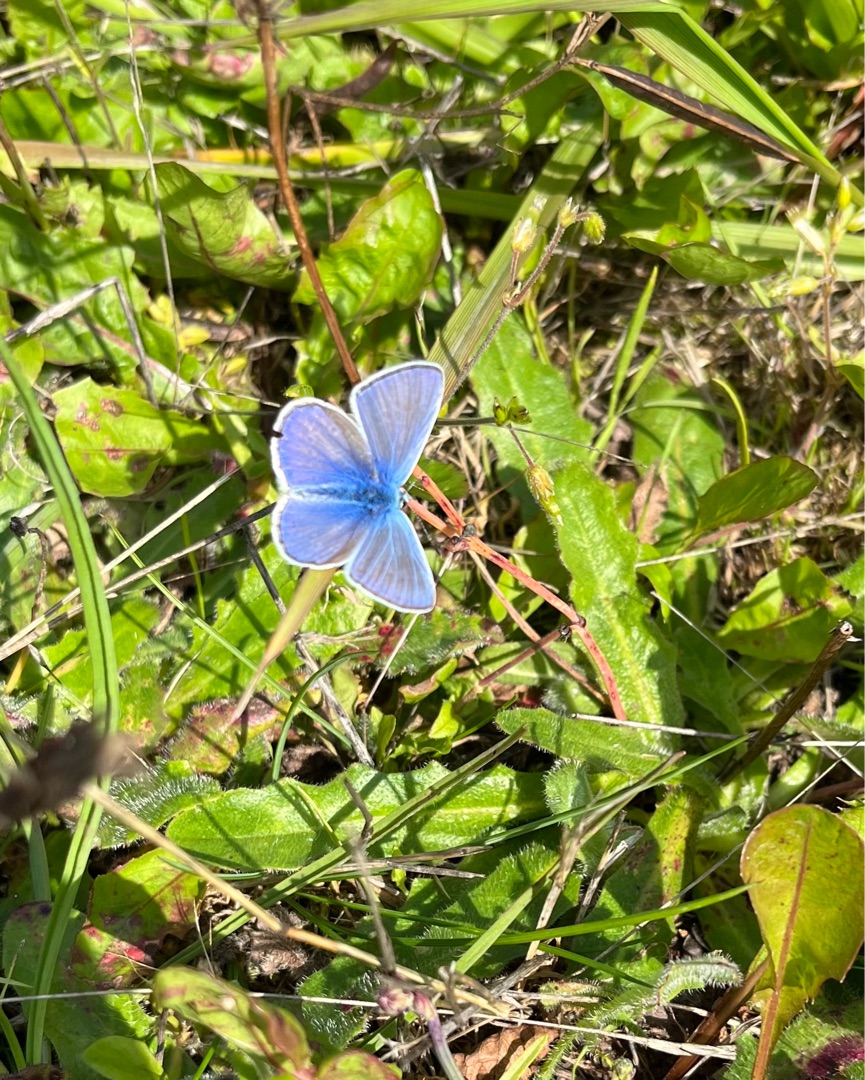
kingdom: Animalia
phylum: Arthropoda
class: Insecta
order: Lepidoptera
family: Lycaenidae
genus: Polyommatus
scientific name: Polyommatus icarus
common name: Almindelig blåfugl
